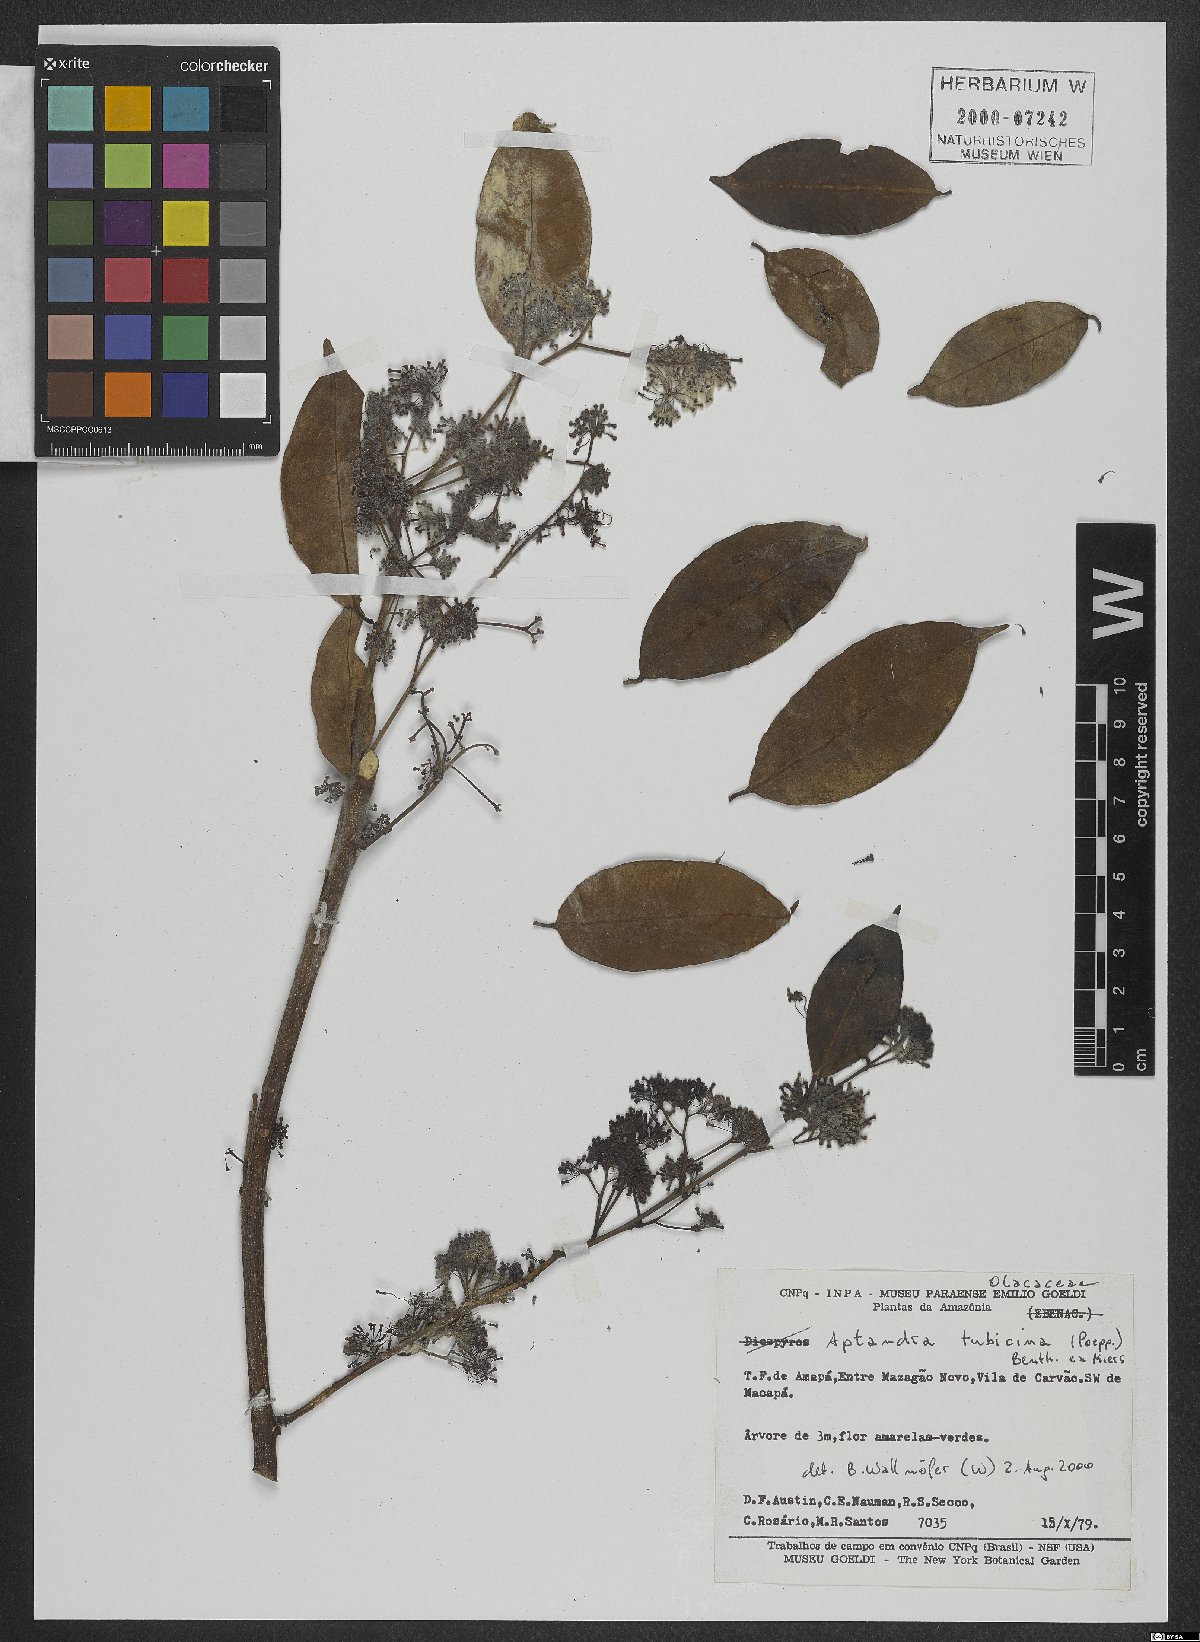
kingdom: Plantae
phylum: Tracheophyta
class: Magnoliopsida
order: Santalales
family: Aptandraceae
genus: Aptandra
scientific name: Aptandra tubicina
